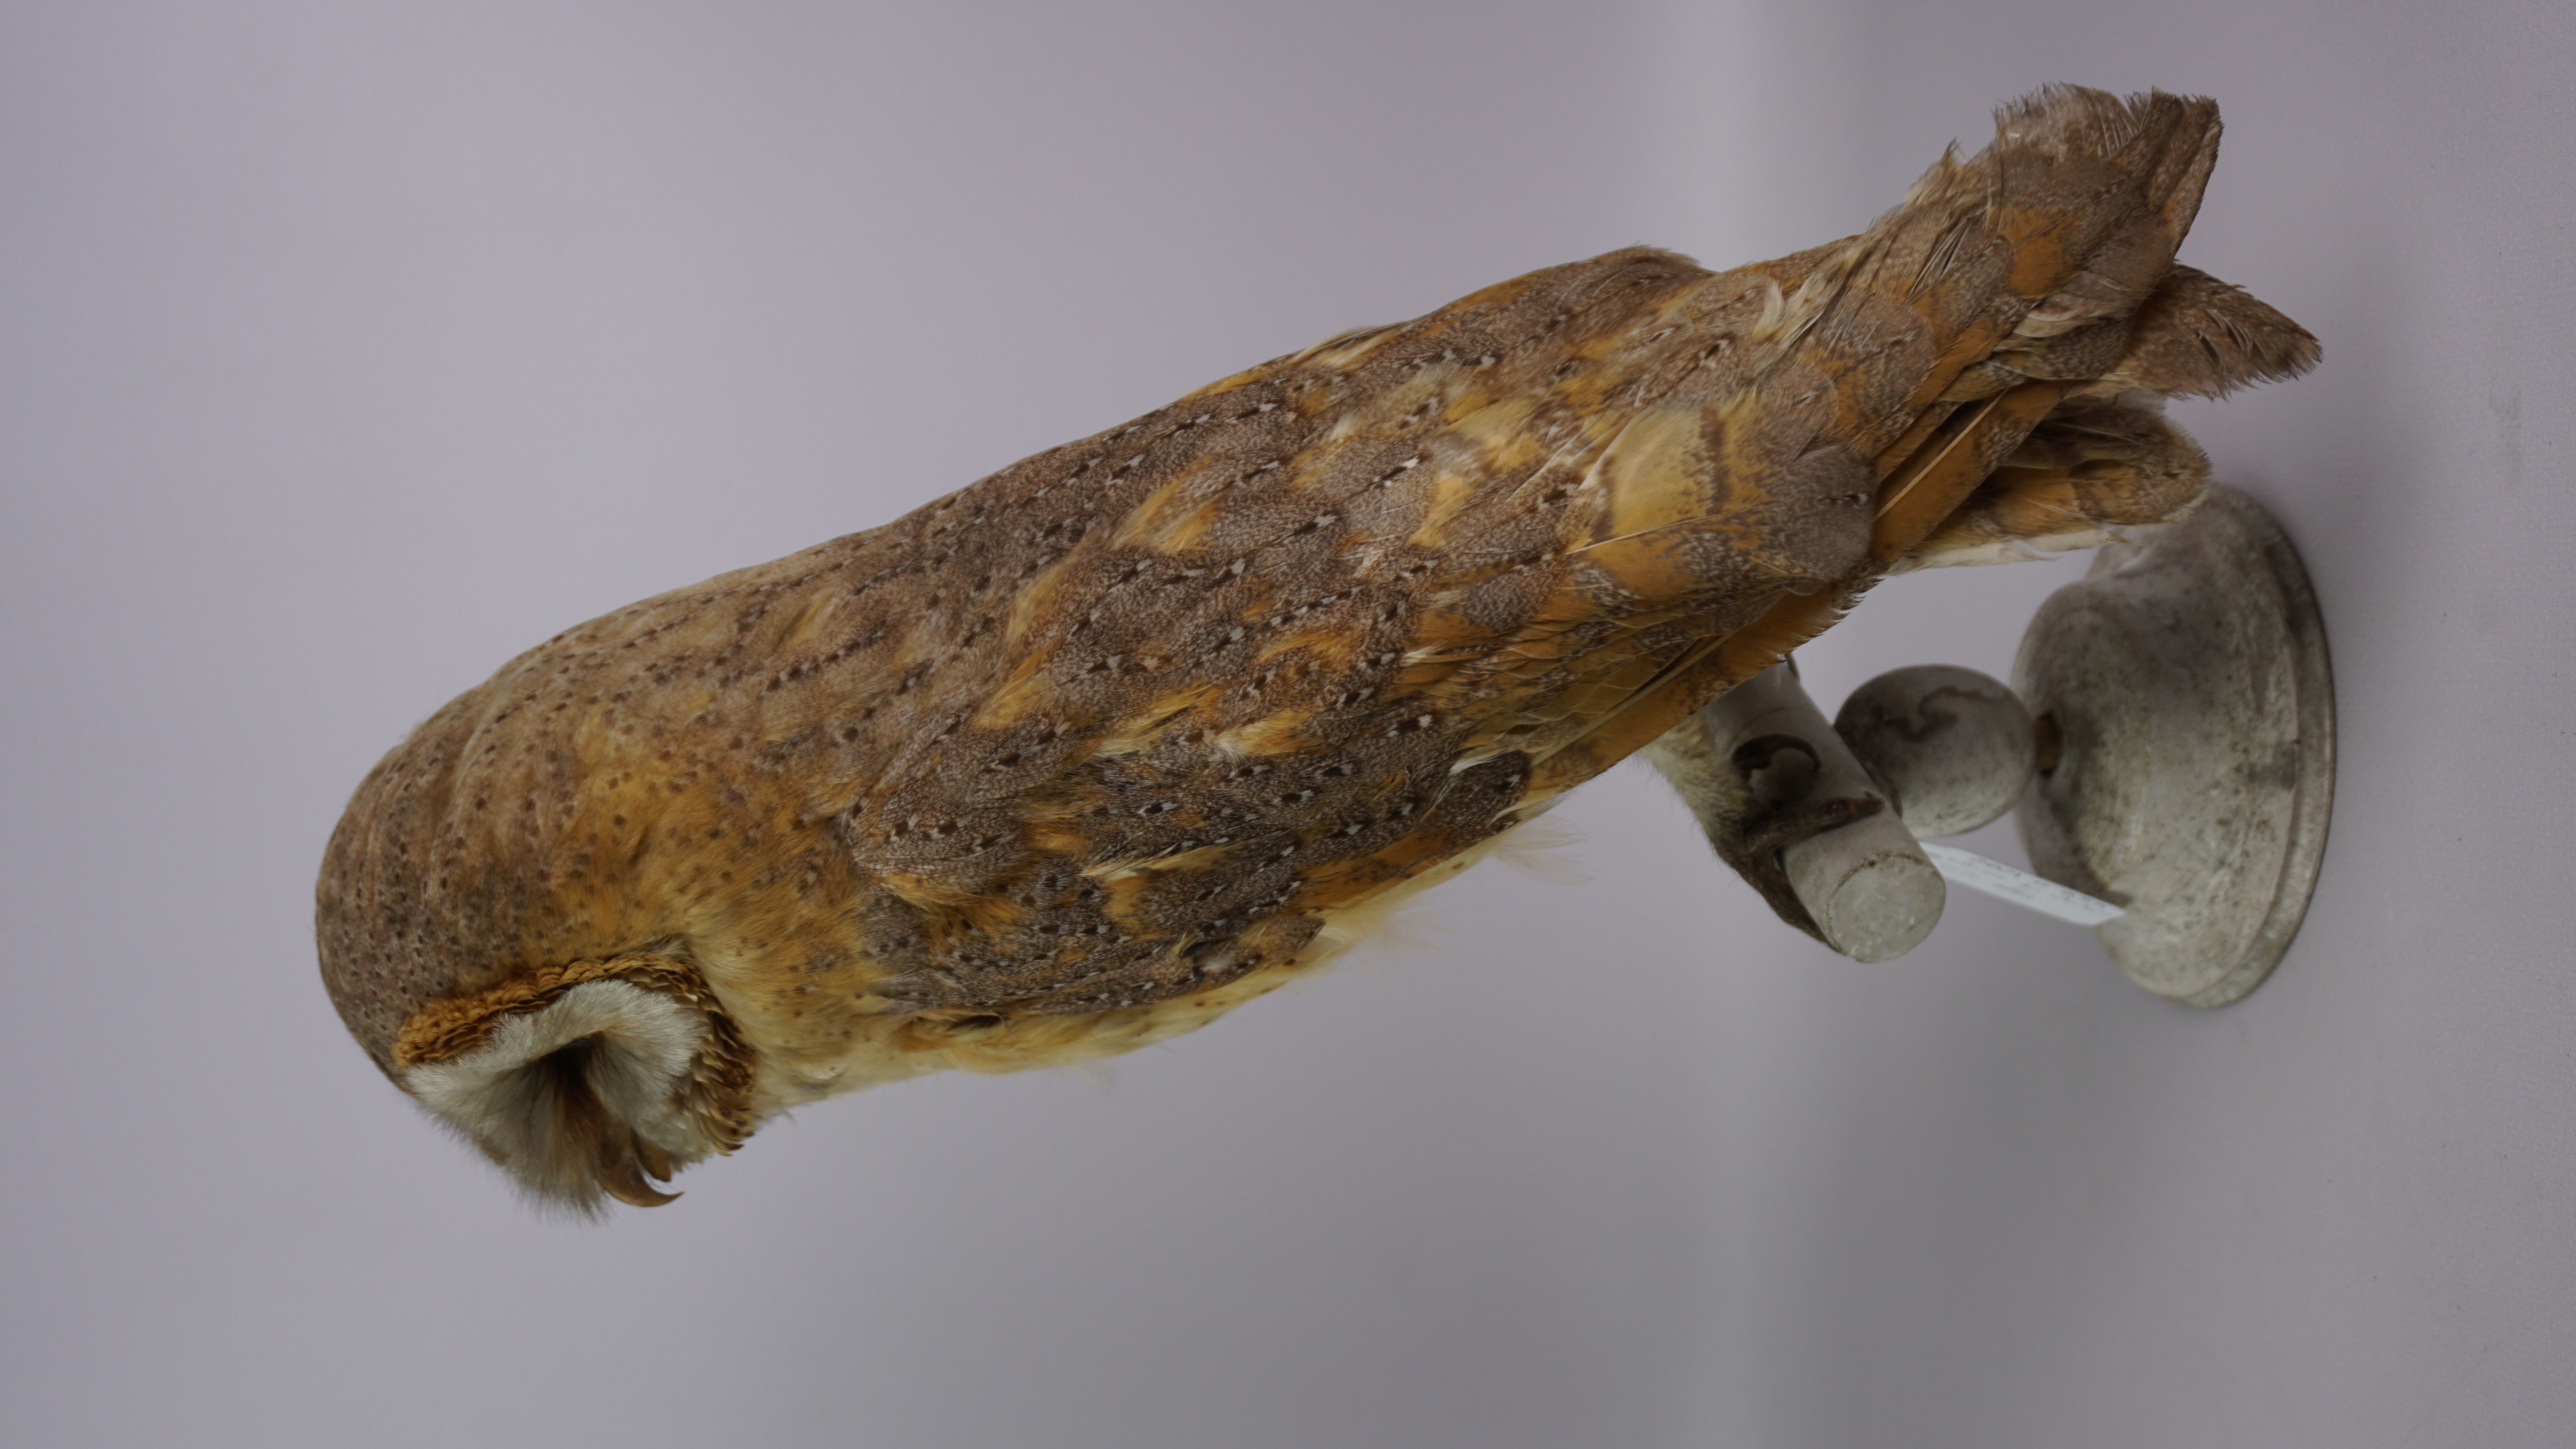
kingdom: Animalia
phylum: Chordata
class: Aves
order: Strigiformes
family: Tytonidae
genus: Tyto
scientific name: Tyto alba
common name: Barn owl
